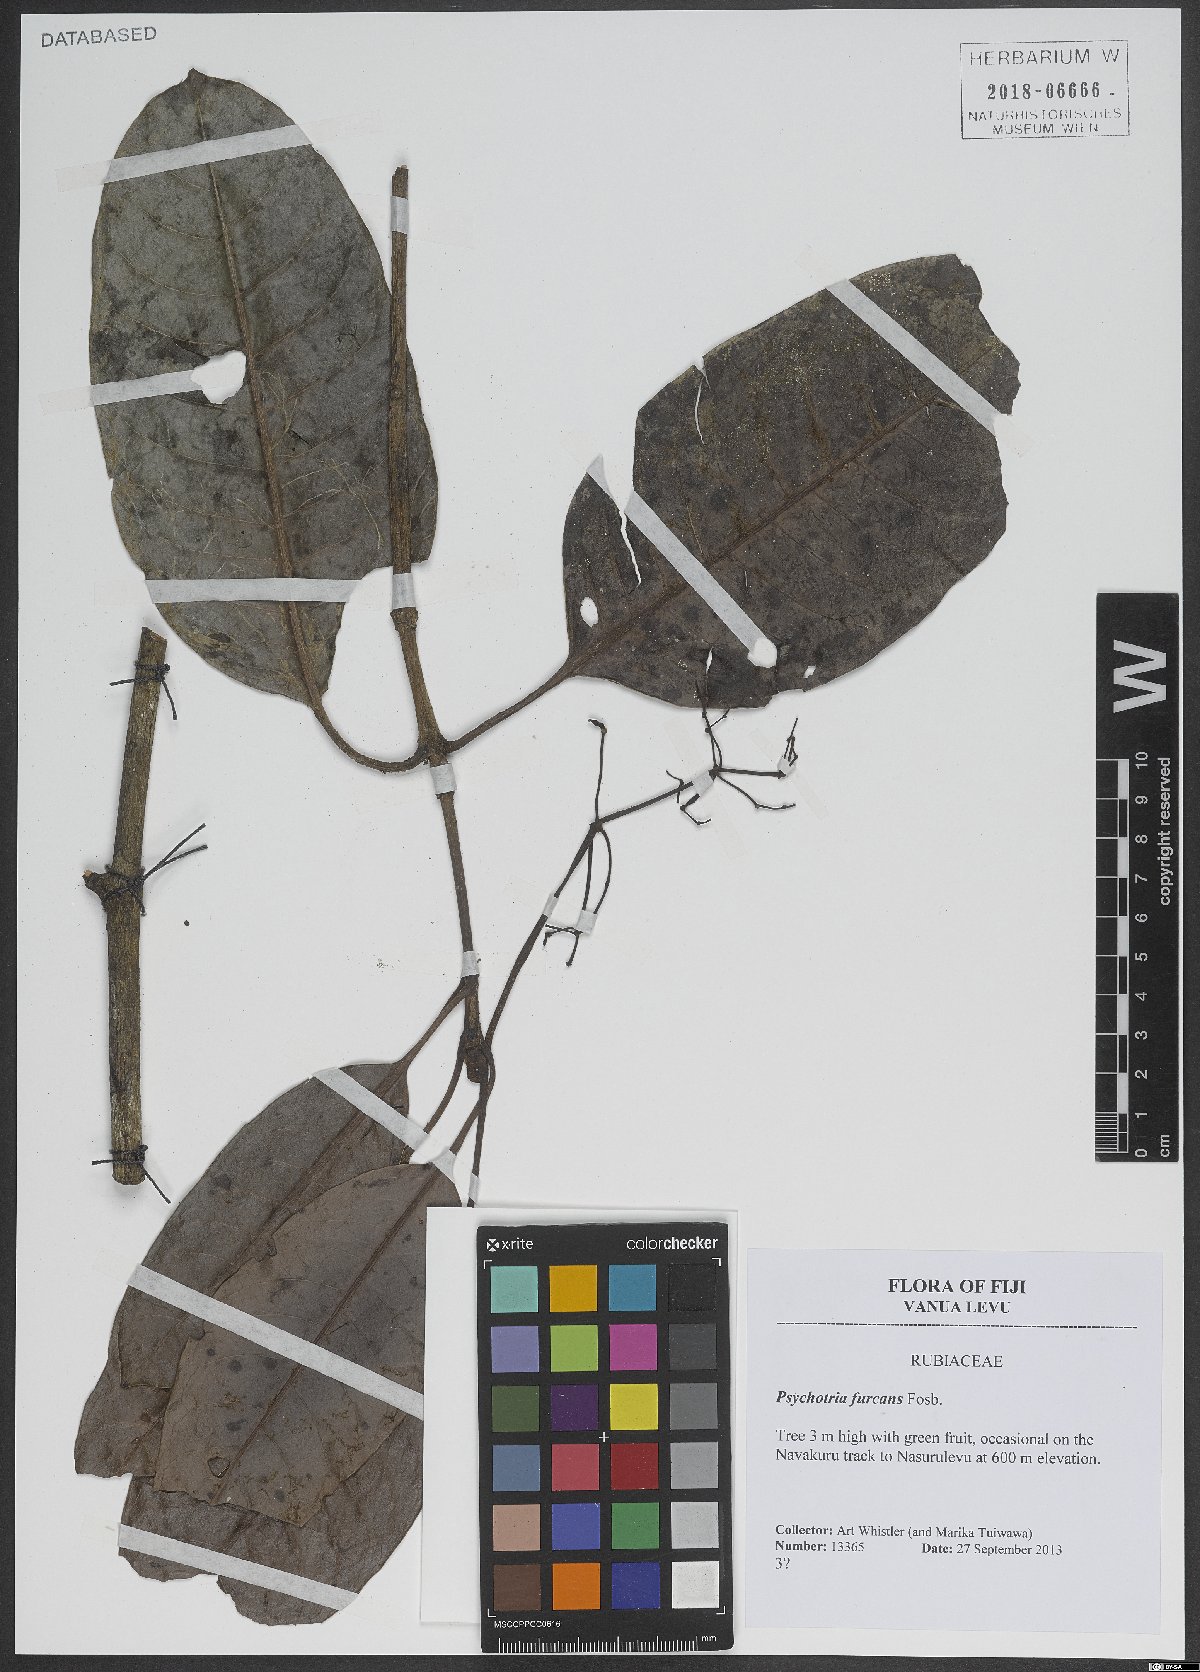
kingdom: Plantae
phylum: Tracheophyta
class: Magnoliopsida
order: Gentianales
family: Rubiaceae
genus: Psychotria
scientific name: Psychotria furcans
